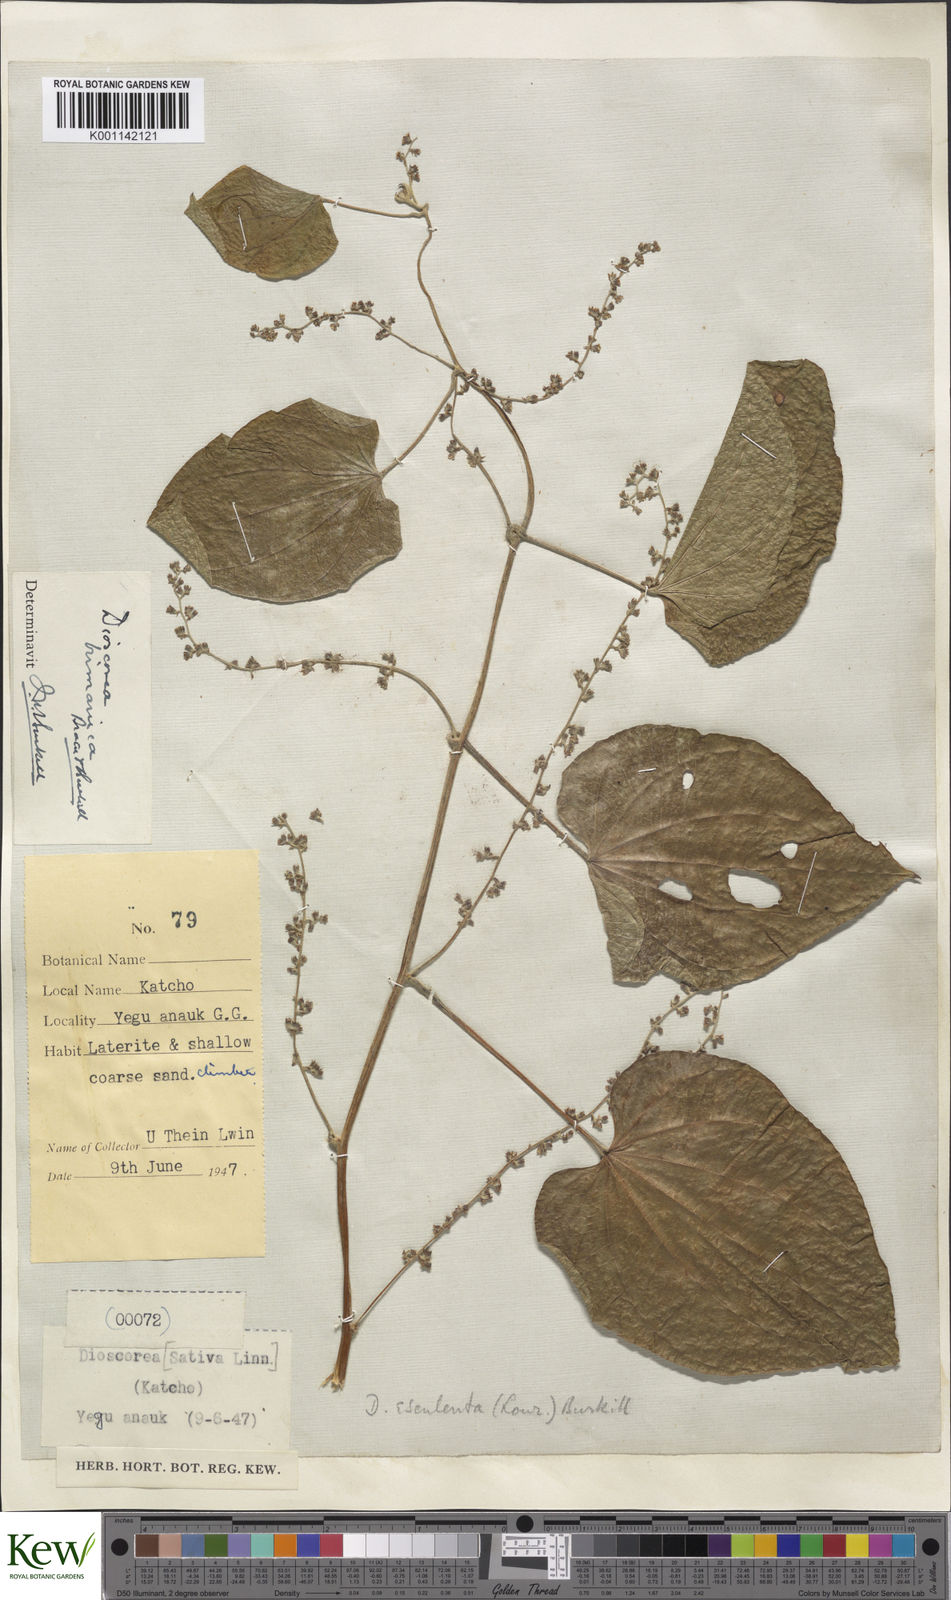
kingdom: Plantae
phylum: Tracheophyta
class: Liliopsida
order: Dioscoreales
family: Dioscoreaceae
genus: Dioscorea
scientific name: Dioscorea birmanica
